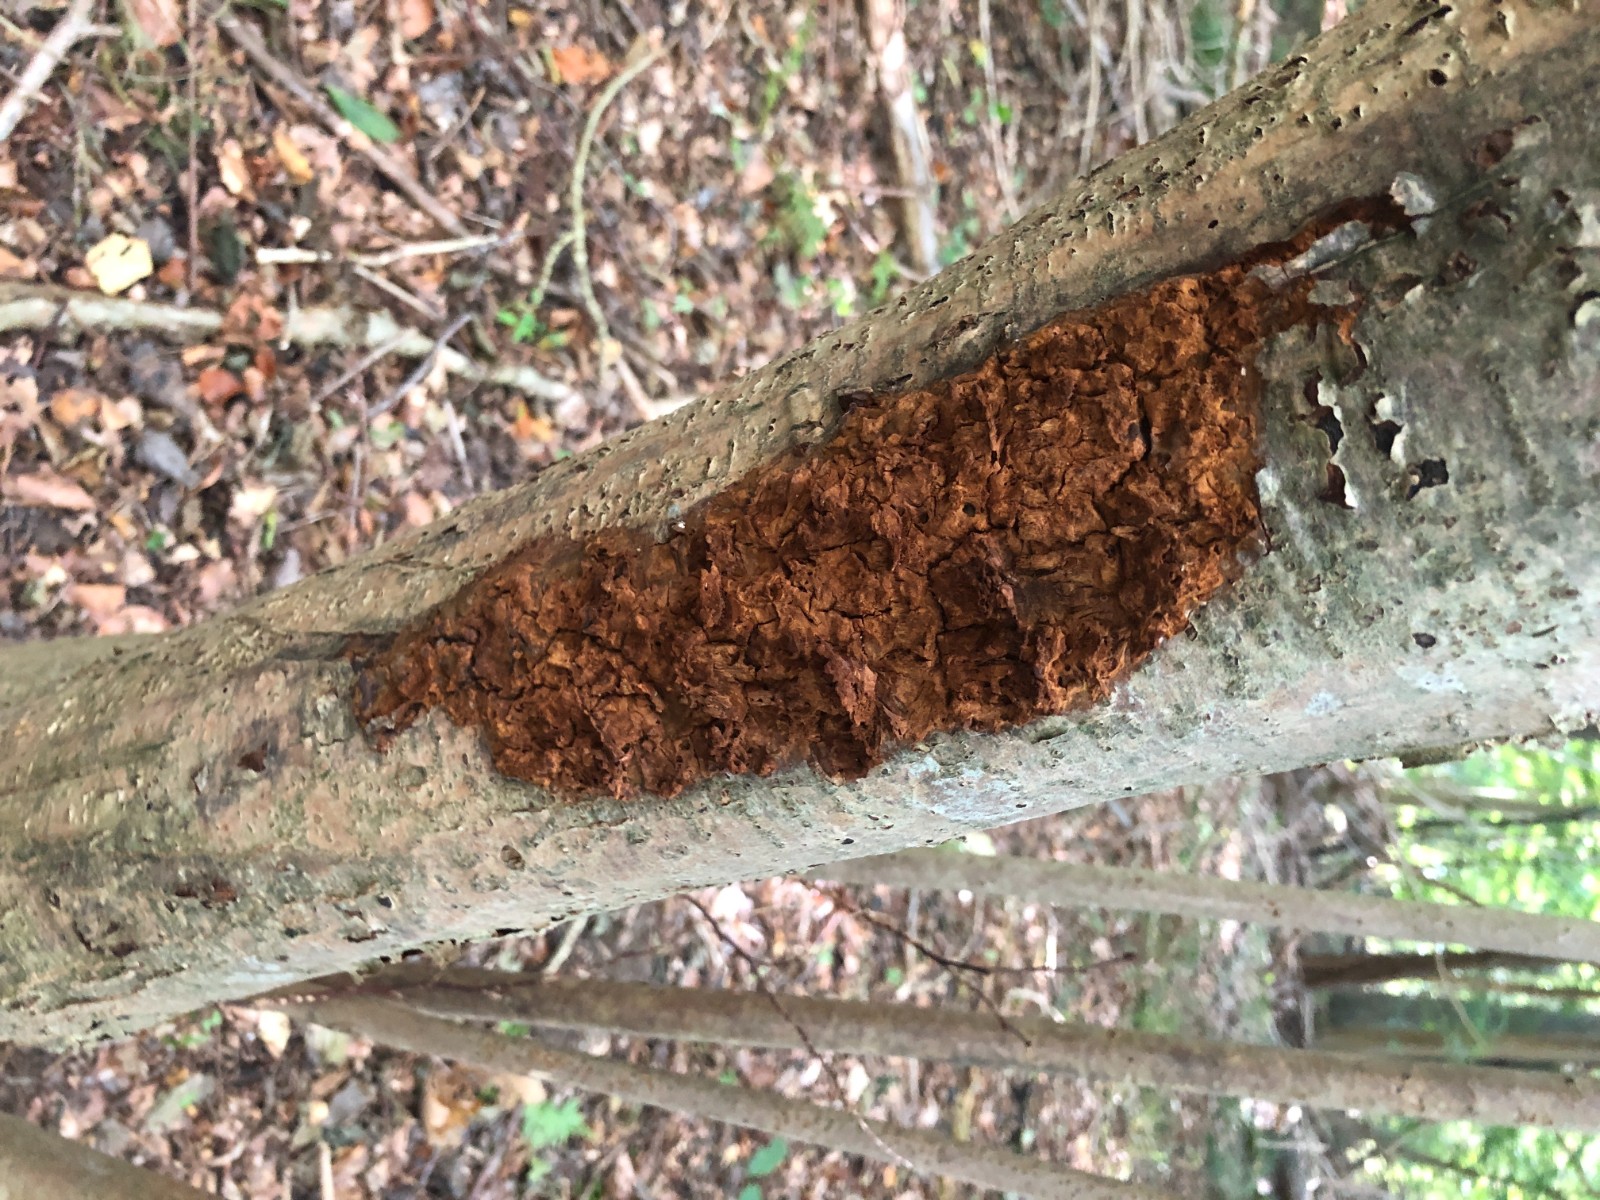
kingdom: Fungi
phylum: Basidiomycota
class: Agaricomycetes
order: Polyporales
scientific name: Polyporales
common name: poresvampordenen
